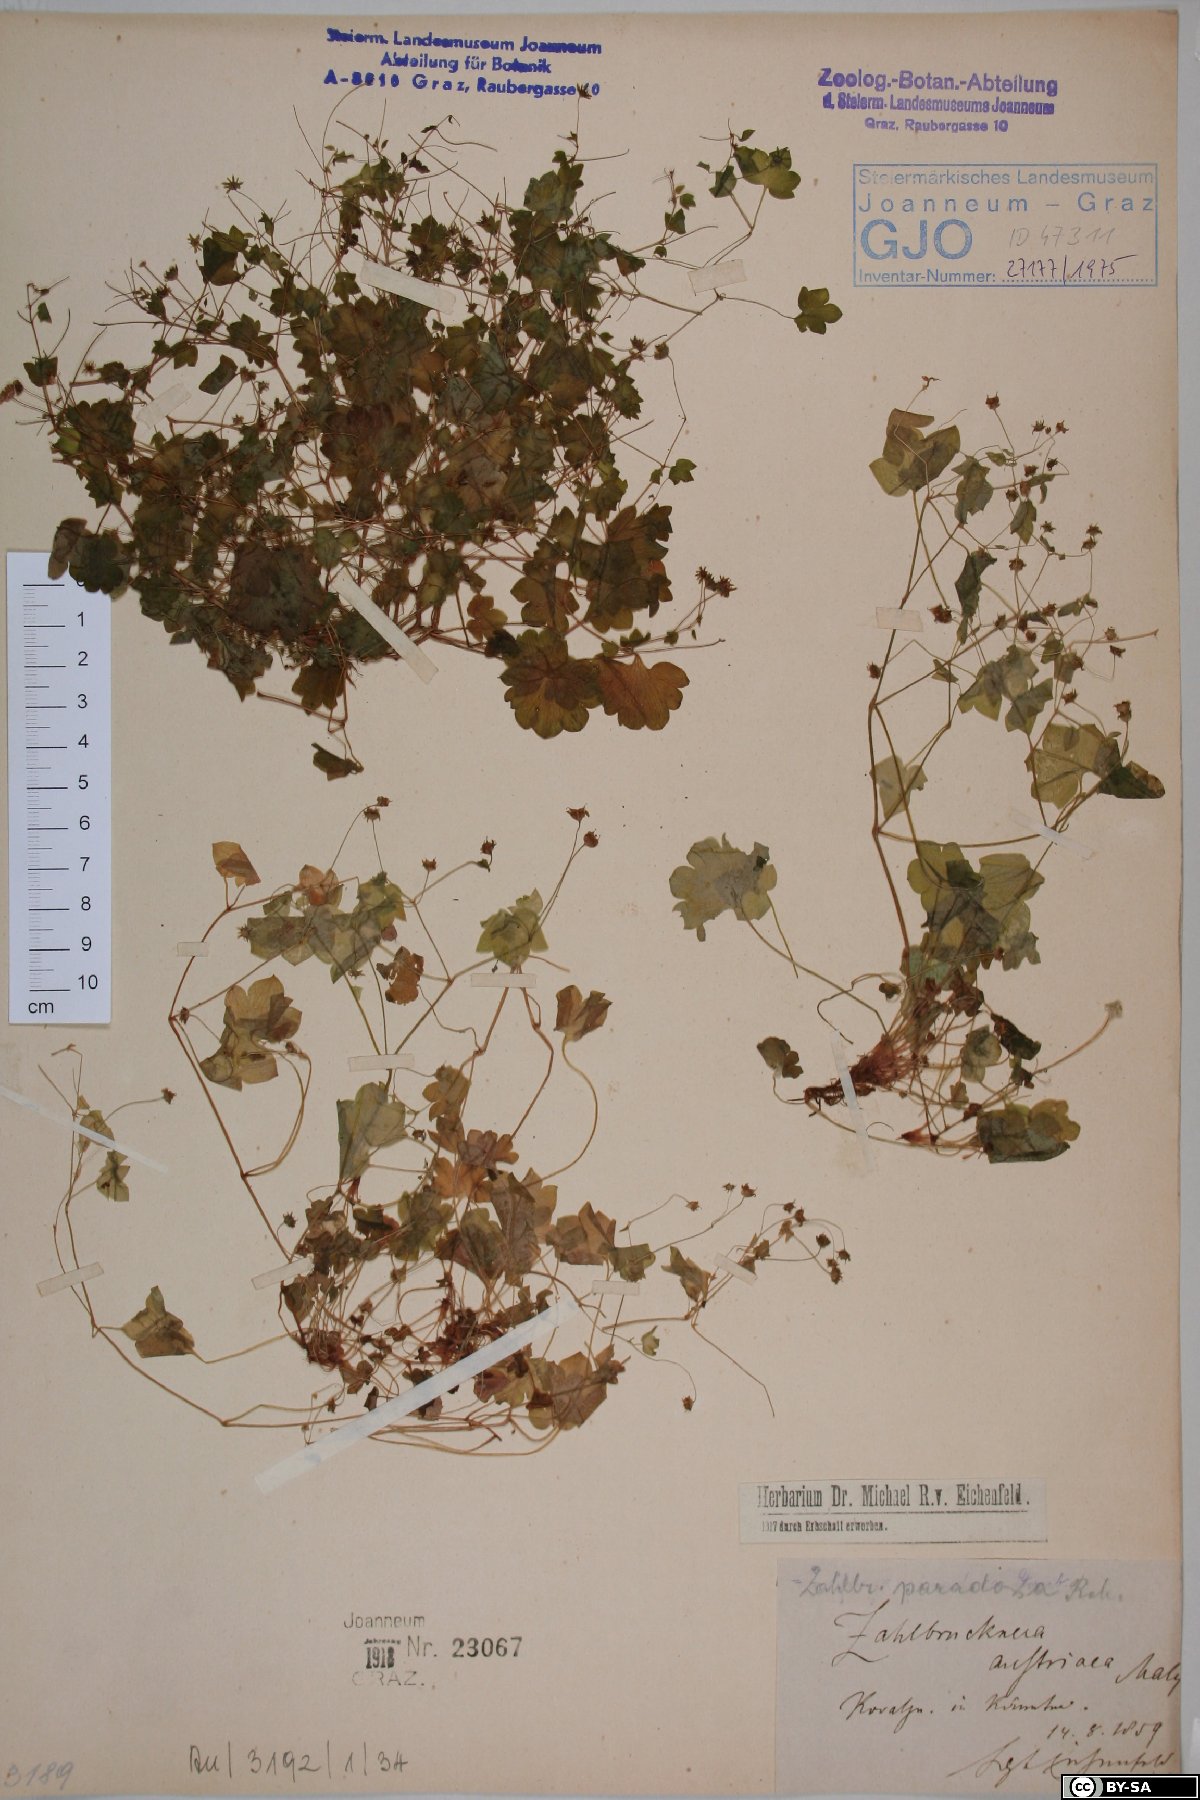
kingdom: Plantae
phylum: Tracheophyta
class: Magnoliopsida
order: Saxifragales
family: Saxifragaceae
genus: Saxifraga
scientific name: Saxifraga paradoxa
